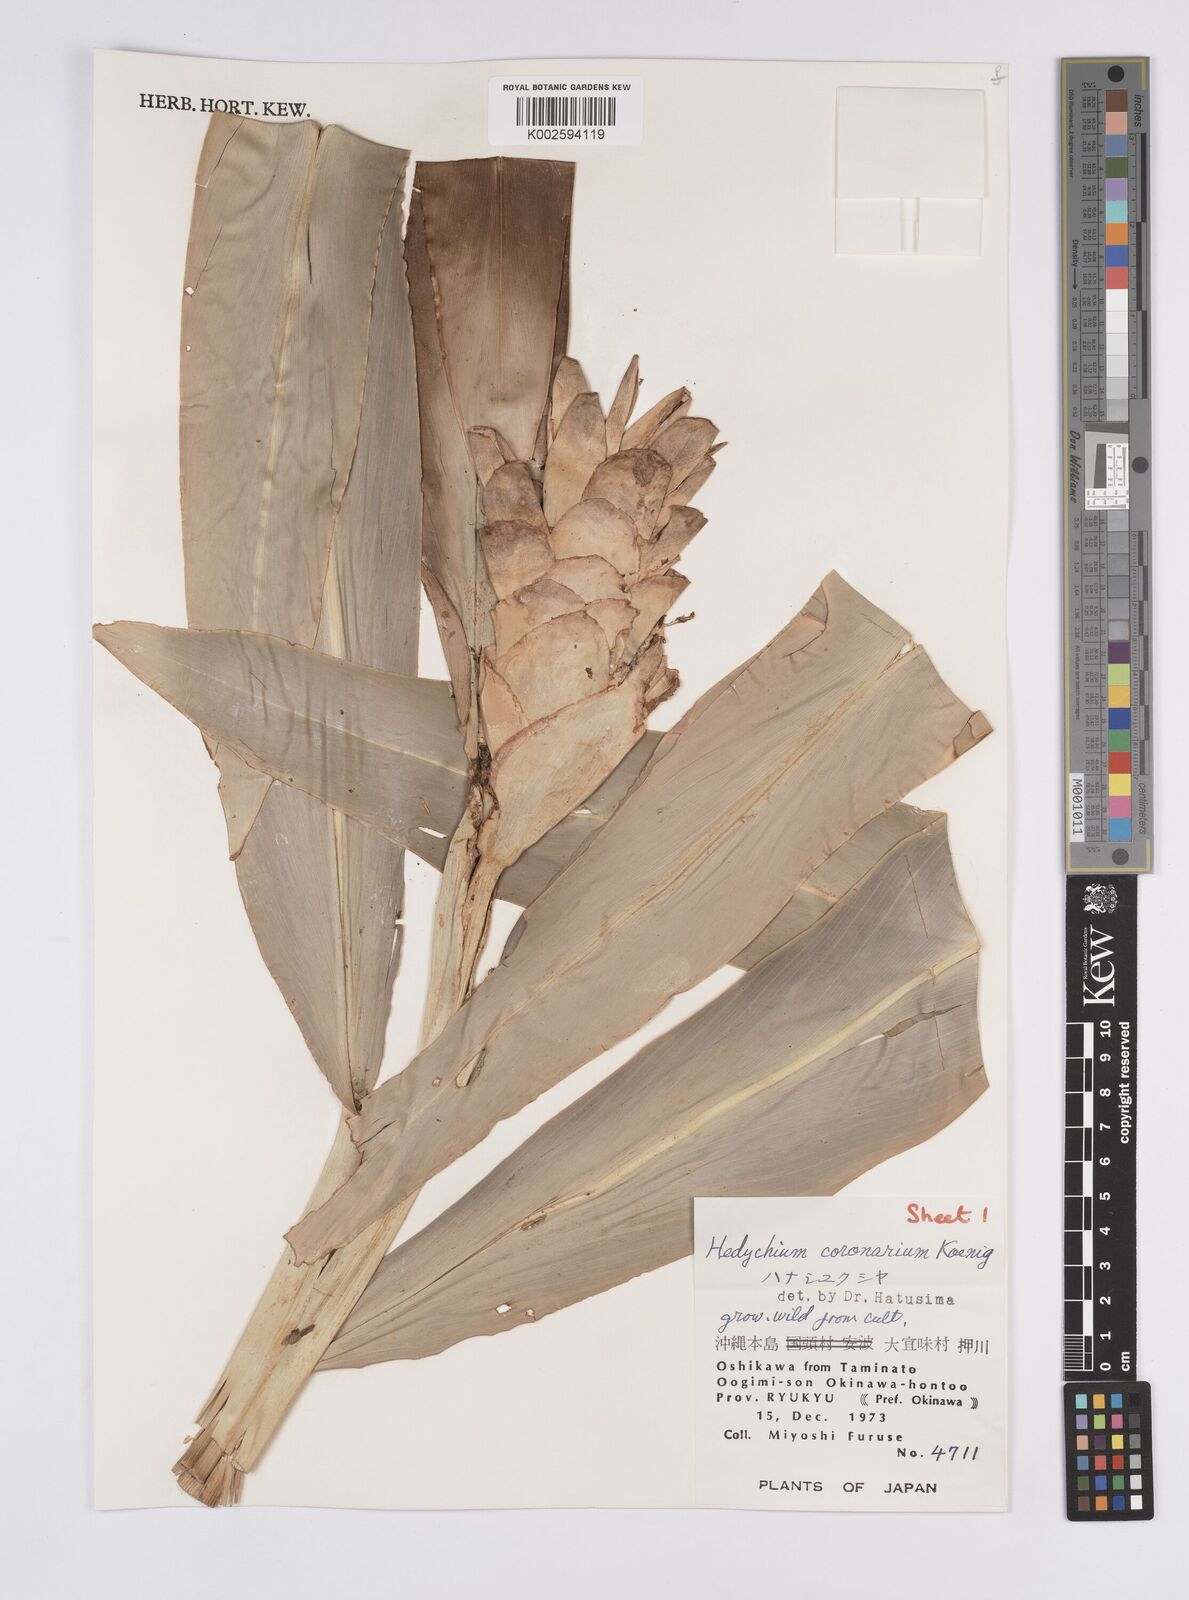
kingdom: Plantae
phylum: Tracheophyta
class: Liliopsida
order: Zingiberales
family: Zingiberaceae
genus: Hedychium
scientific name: Hedychium coronarium
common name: White garland-lily
